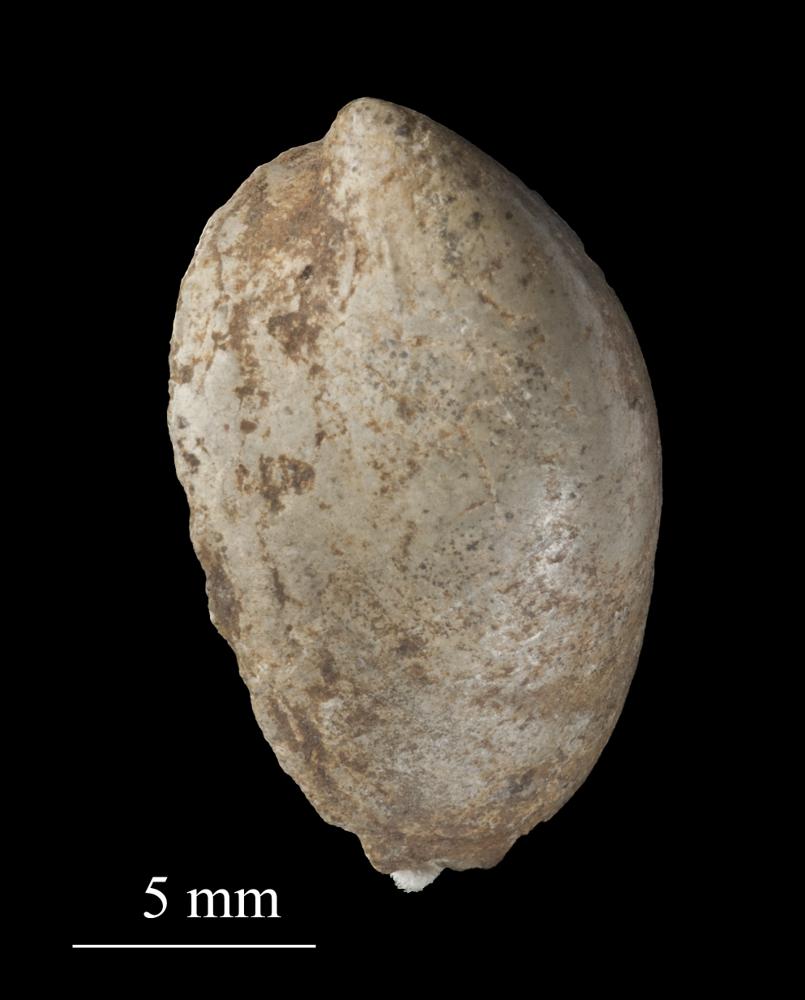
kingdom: Animalia
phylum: Mollusca
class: Gastropoda
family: Archinacellidae
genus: Archinacella
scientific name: Archinacella rostrata
